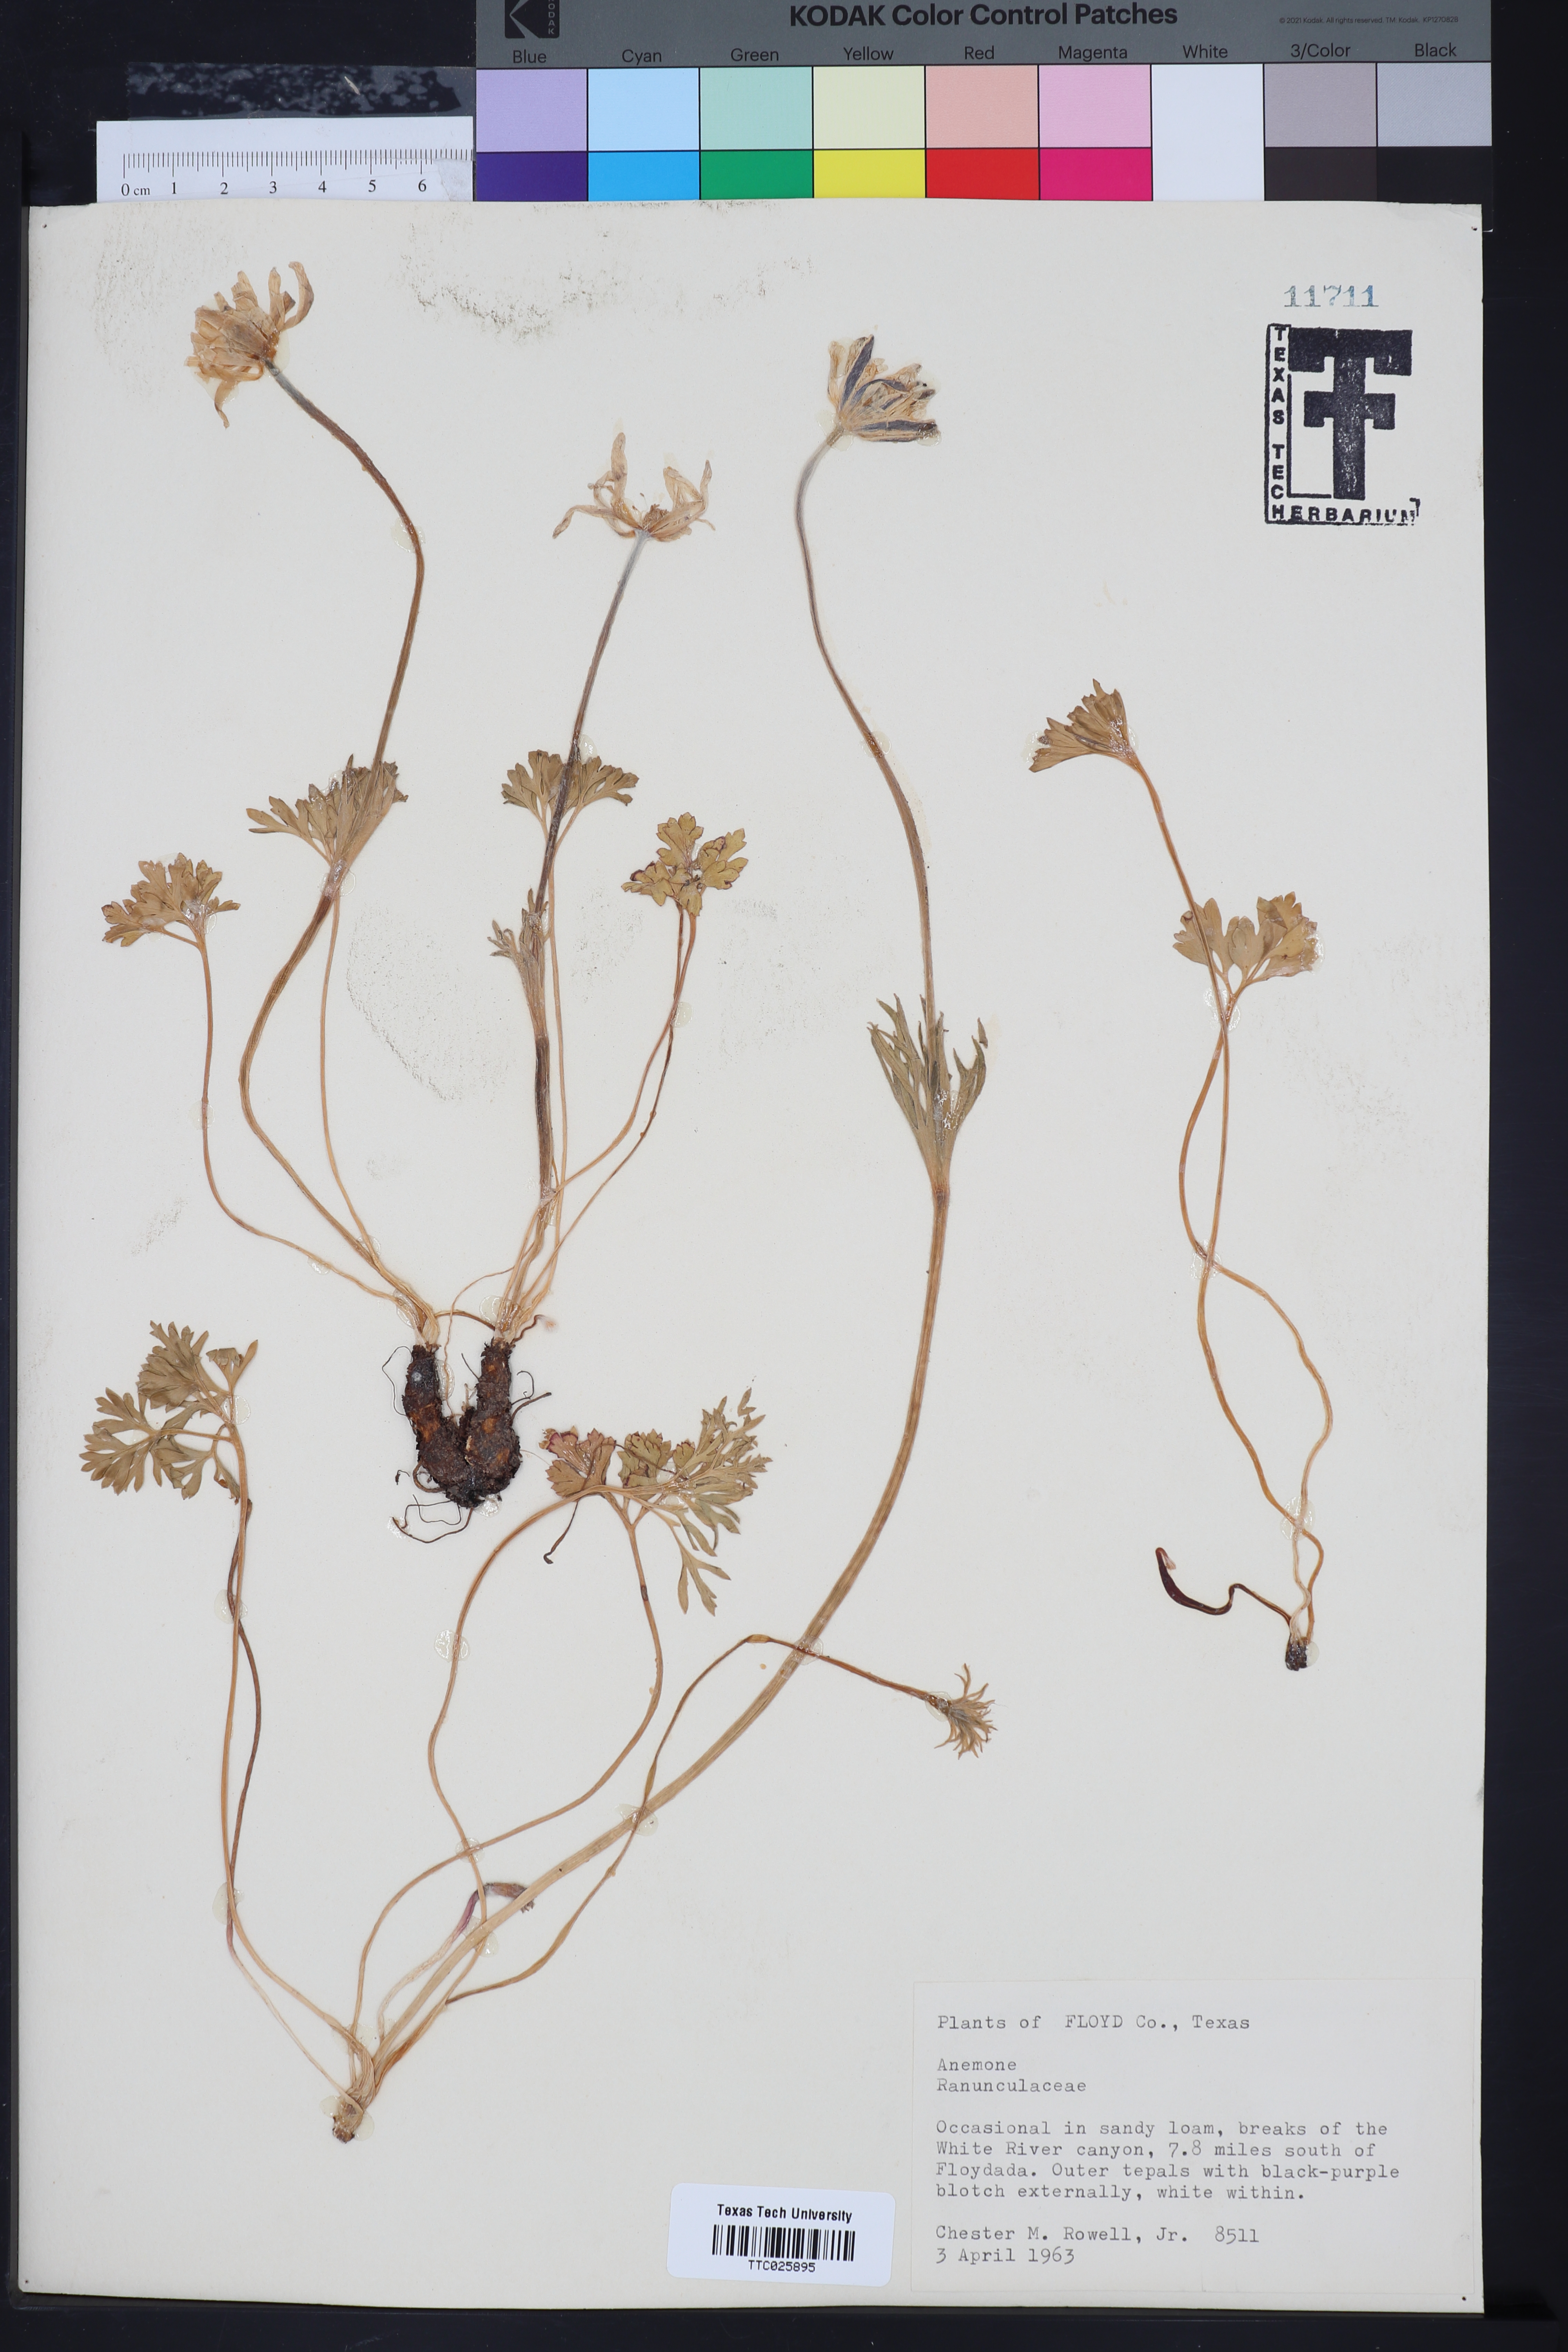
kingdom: Plantae
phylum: Tracheophyta
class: Magnoliopsida
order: Ranunculales
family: Ranunculaceae
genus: Anemone
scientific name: Anemone
